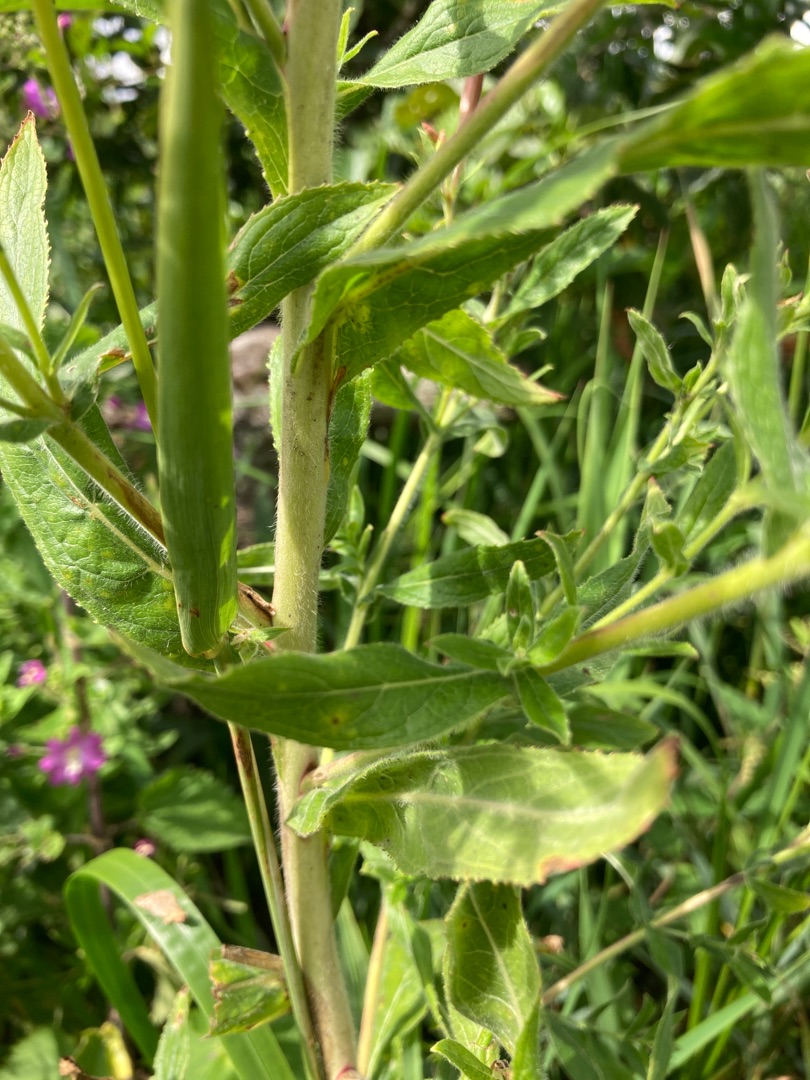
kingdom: Plantae
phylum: Tracheophyta
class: Magnoliopsida
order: Myrtales
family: Onagraceae
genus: Epilobium
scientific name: Epilobium hirsutum
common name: Lådden dueurt
